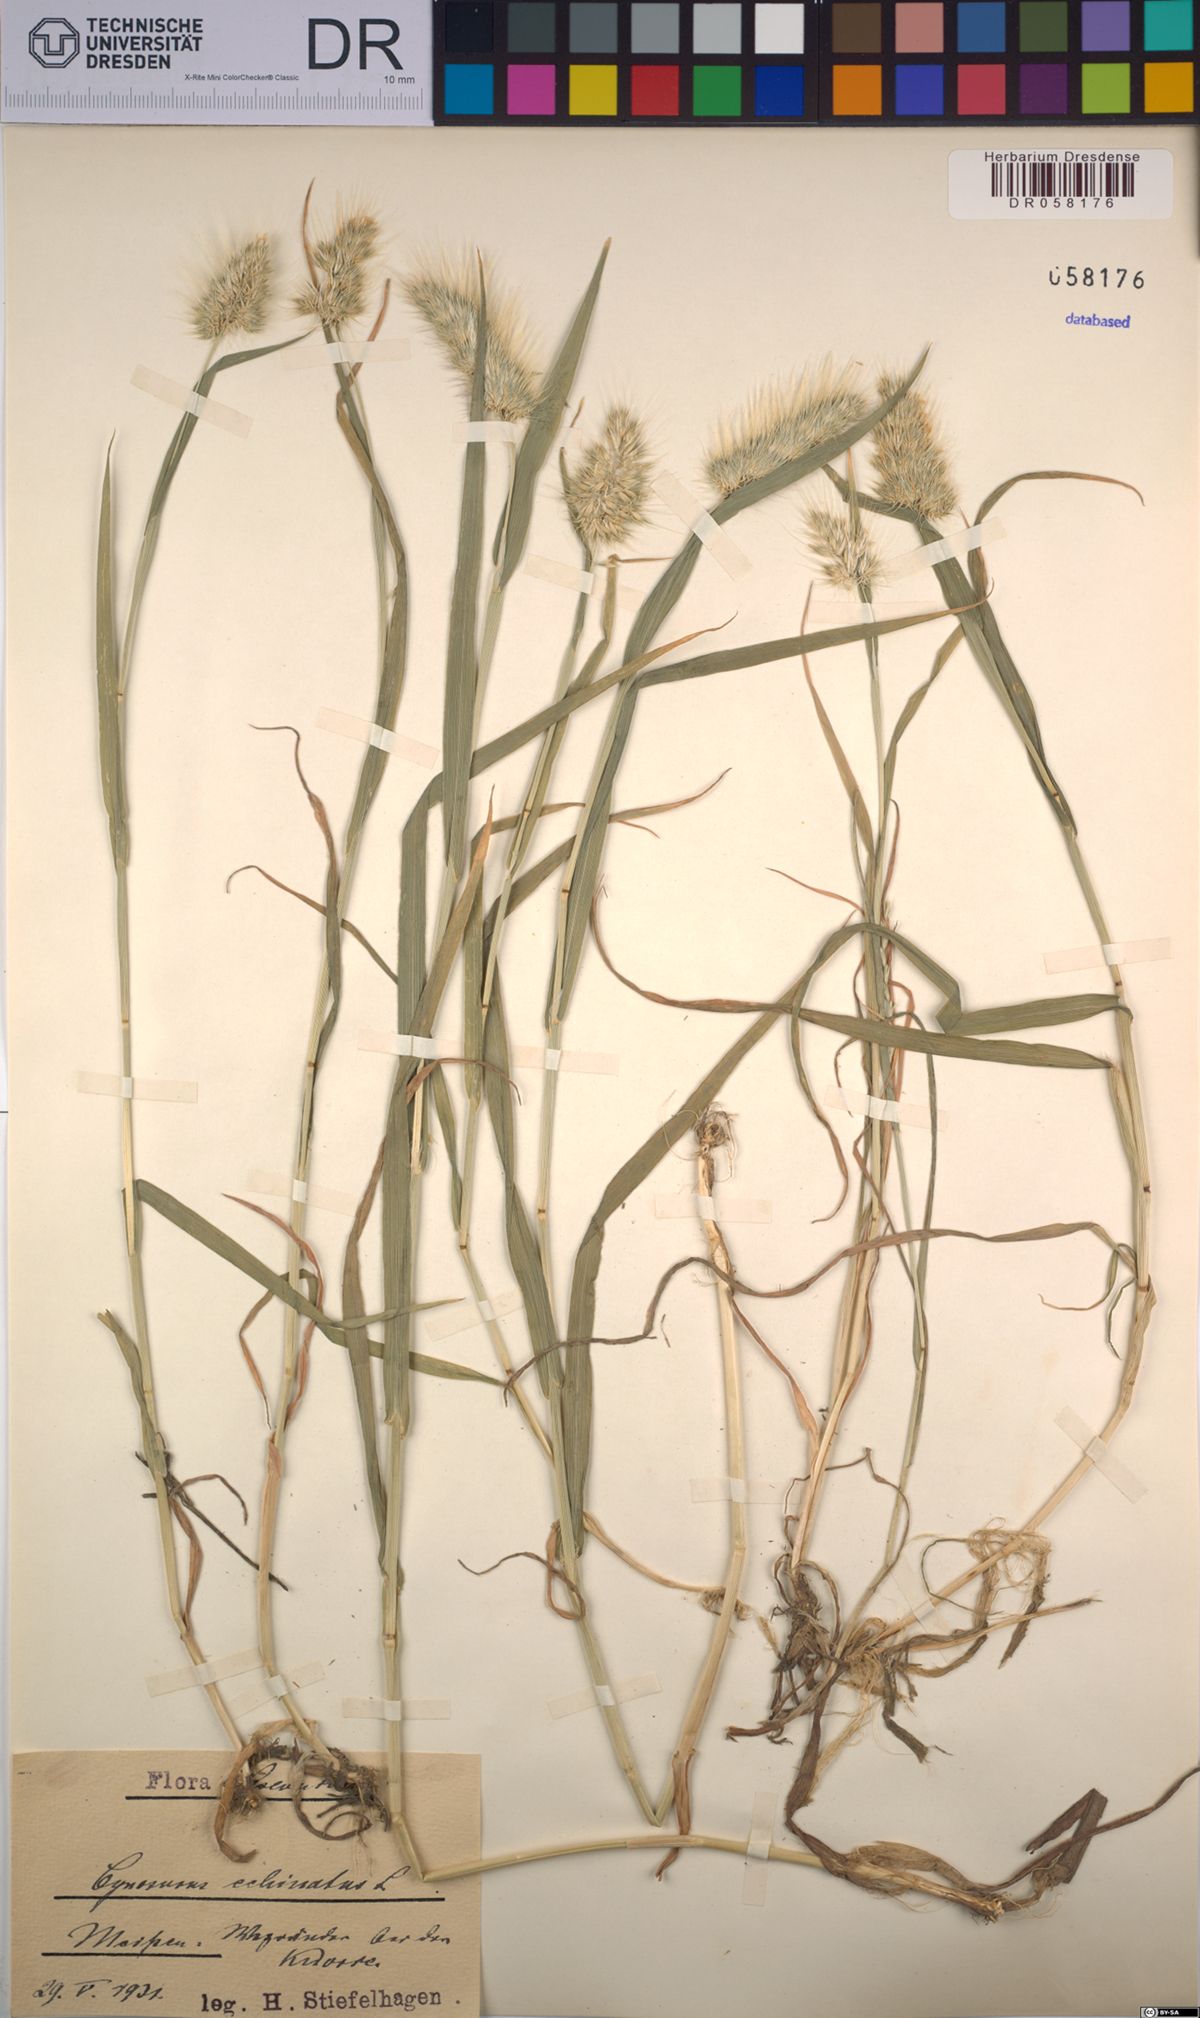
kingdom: Plantae
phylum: Tracheophyta
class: Liliopsida
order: Poales
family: Poaceae
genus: Cynosurus
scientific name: Cynosurus echinatus
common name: Rough dog's-tail
